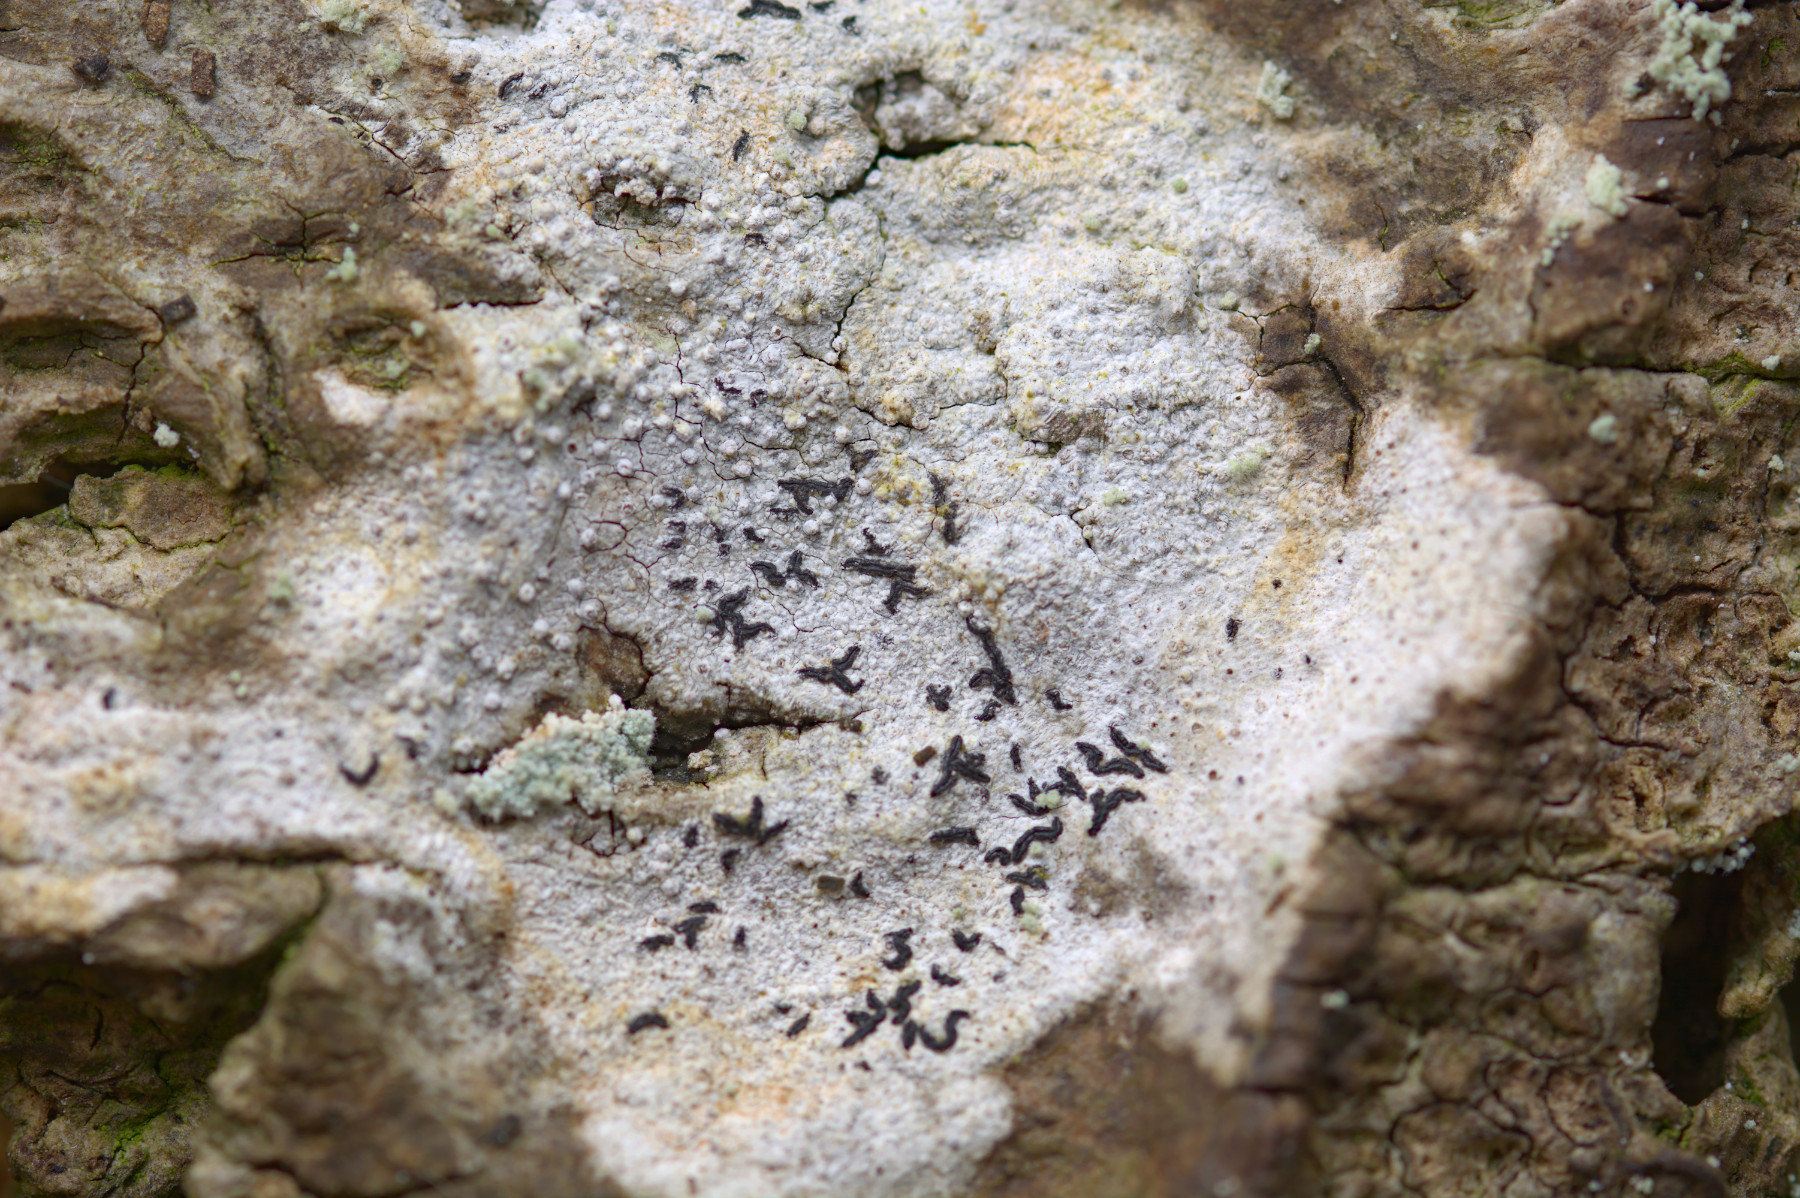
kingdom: Fungi
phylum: Ascomycota
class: Arthoniomycetes
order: Arthoniales
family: Opegraphaceae
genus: Opegrapha
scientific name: Opegrapha vermicellifera
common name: nåleprikket bogstavlav
